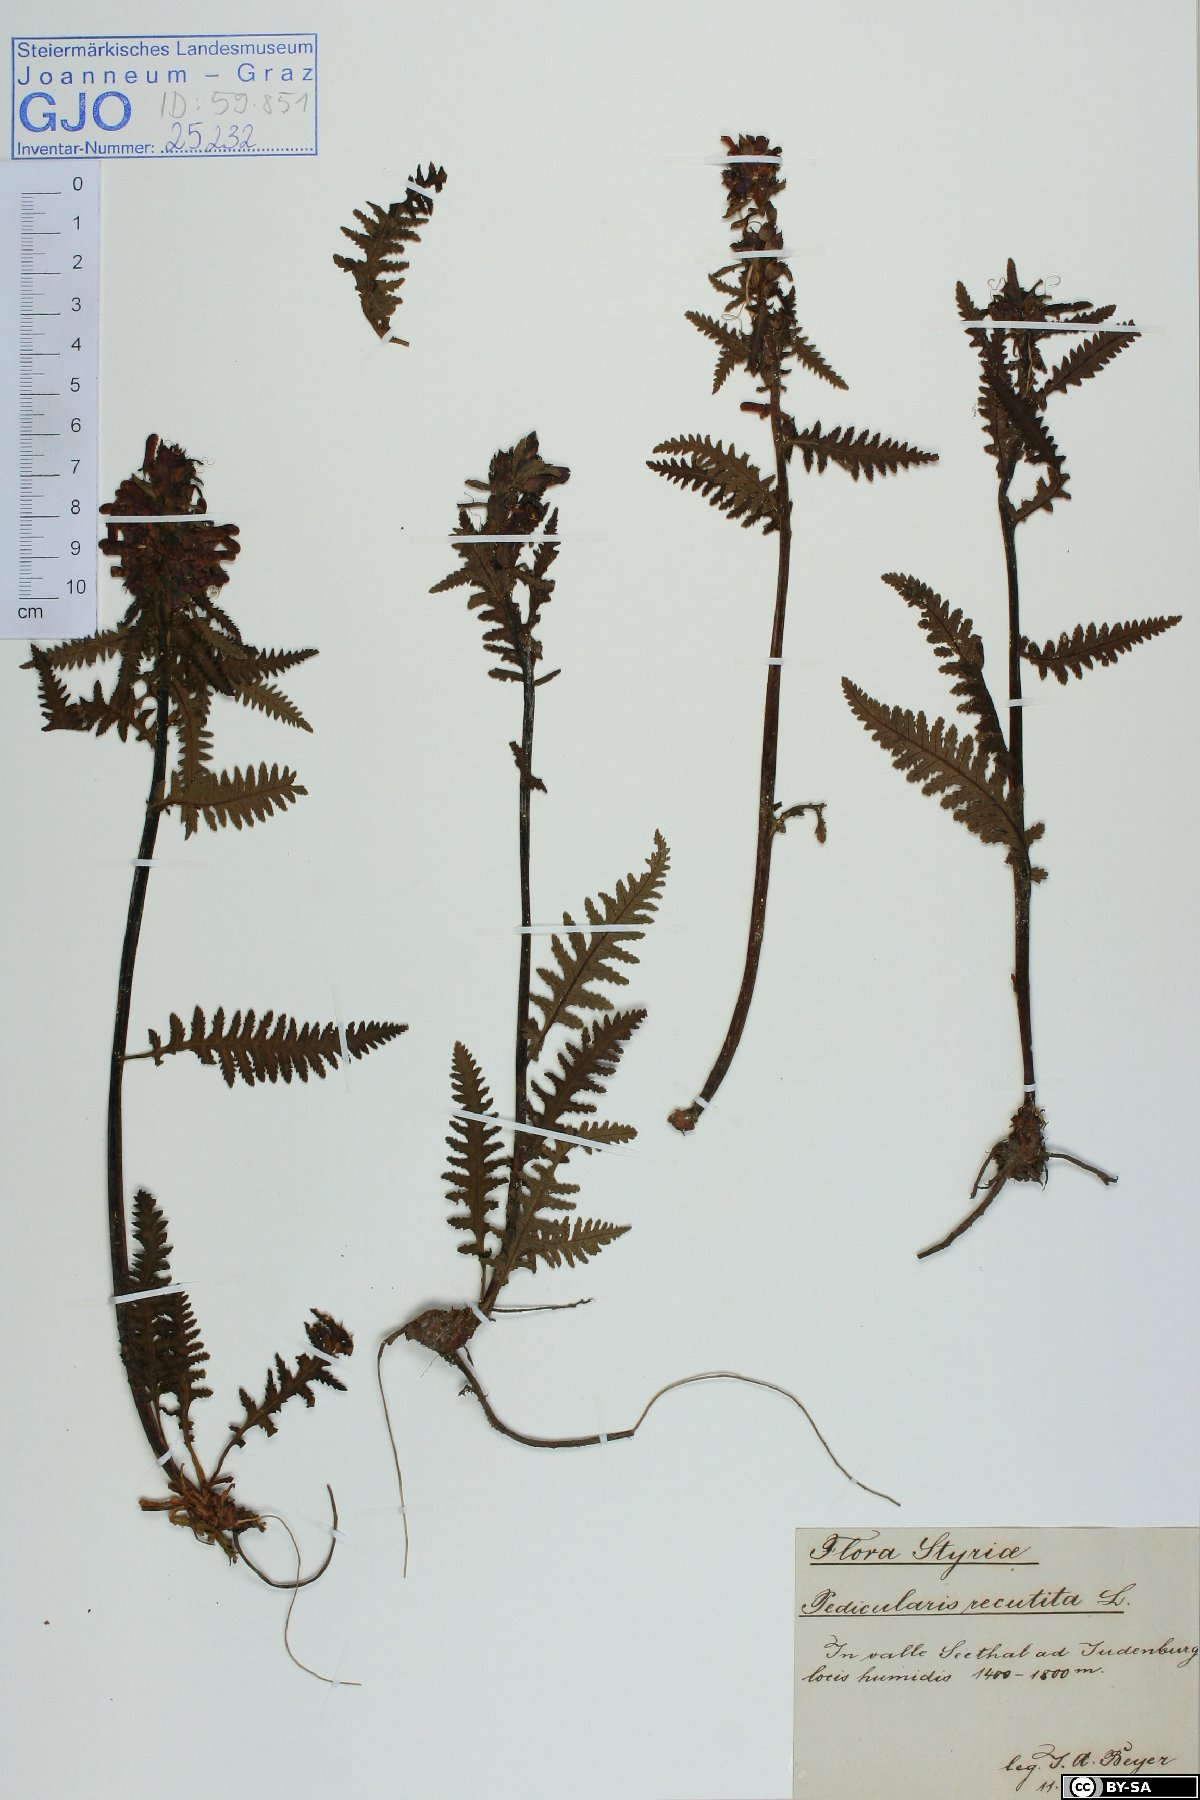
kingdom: Plantae
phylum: Tracheophyta
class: Magnoliopsida
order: Lamiales
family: Orobanchaceae
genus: Pedicularis
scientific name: Pedicularis recutita
